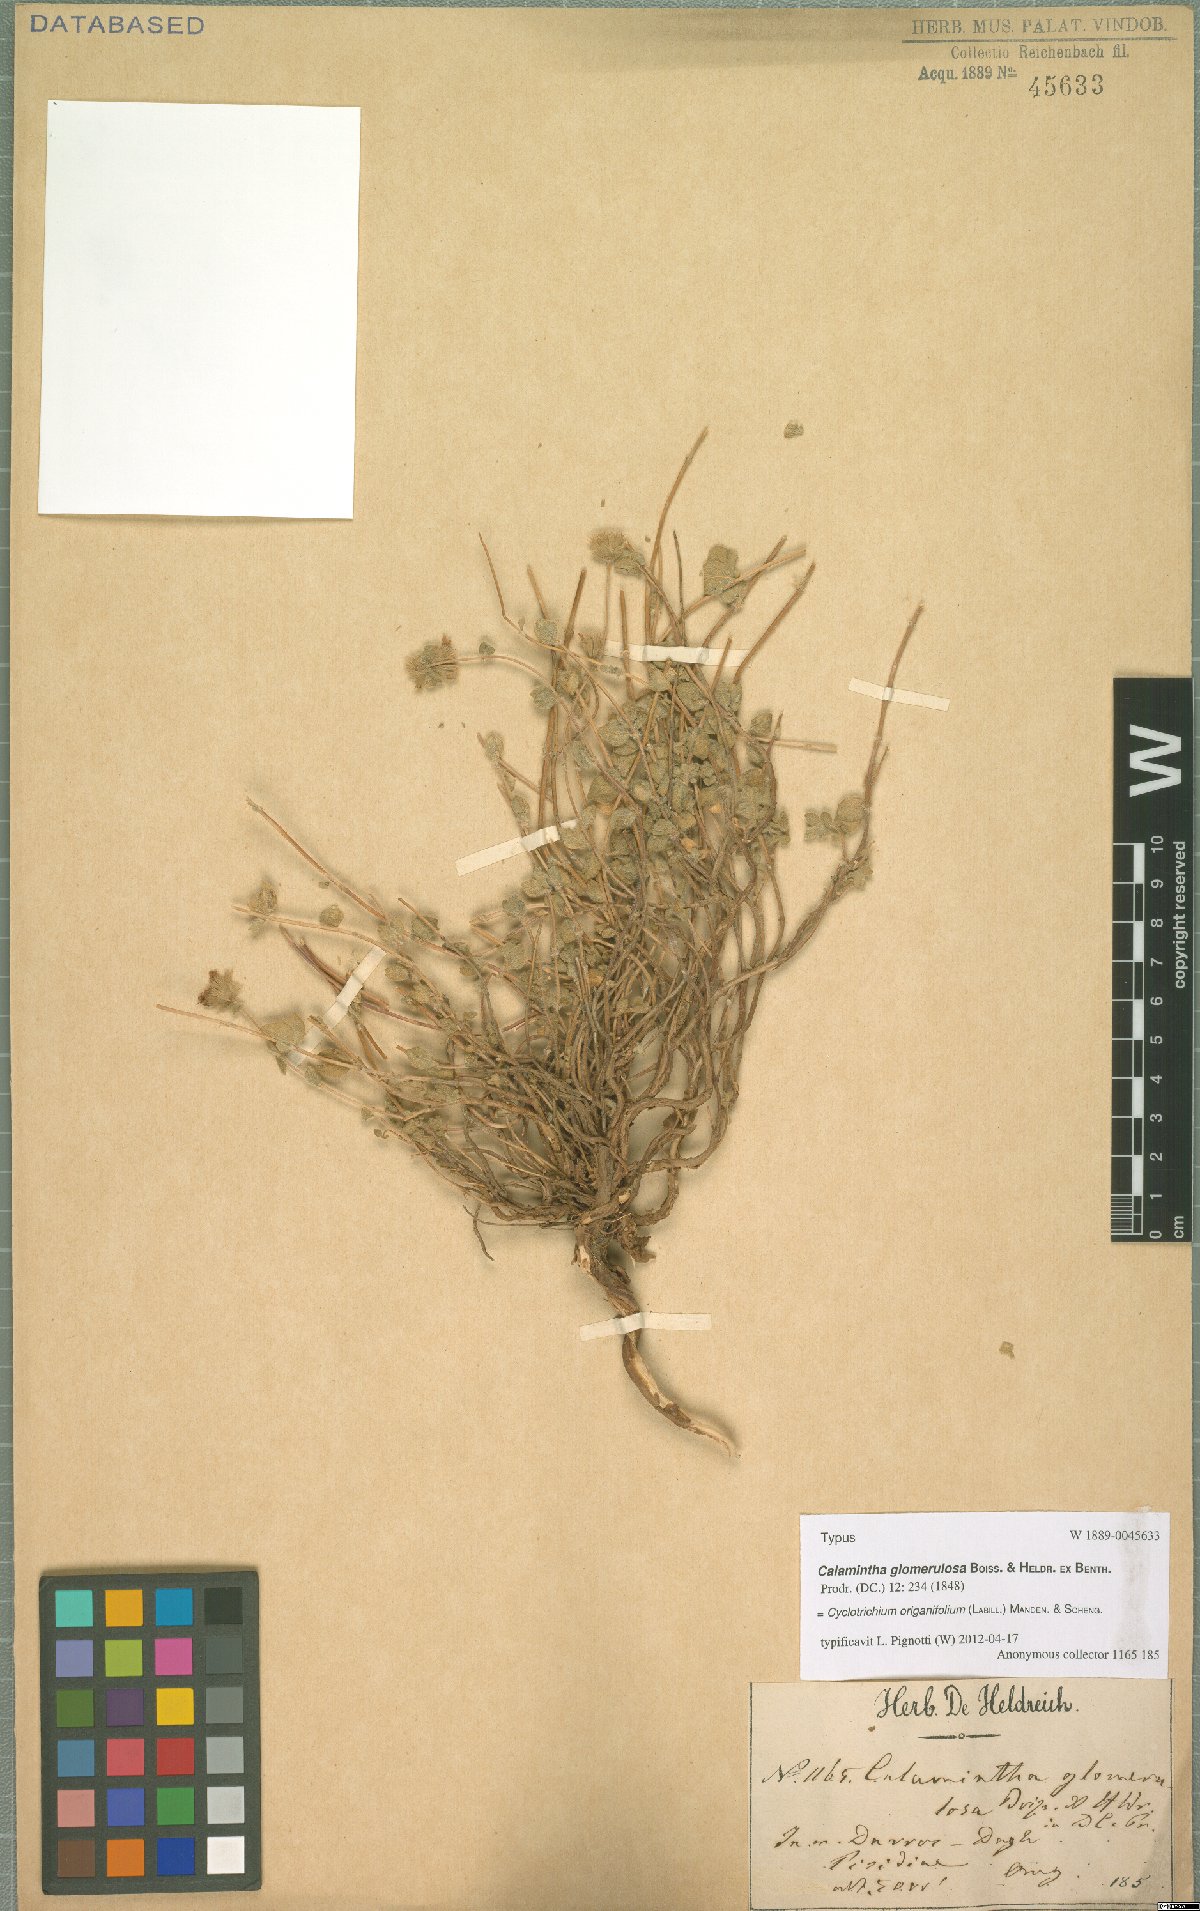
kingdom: Plantae
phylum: Tracheophyta
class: Magnoliopsida
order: Lamiales
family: Lamiaceae
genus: Cyclotrichium
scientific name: Cyclotrichium origanifolium
